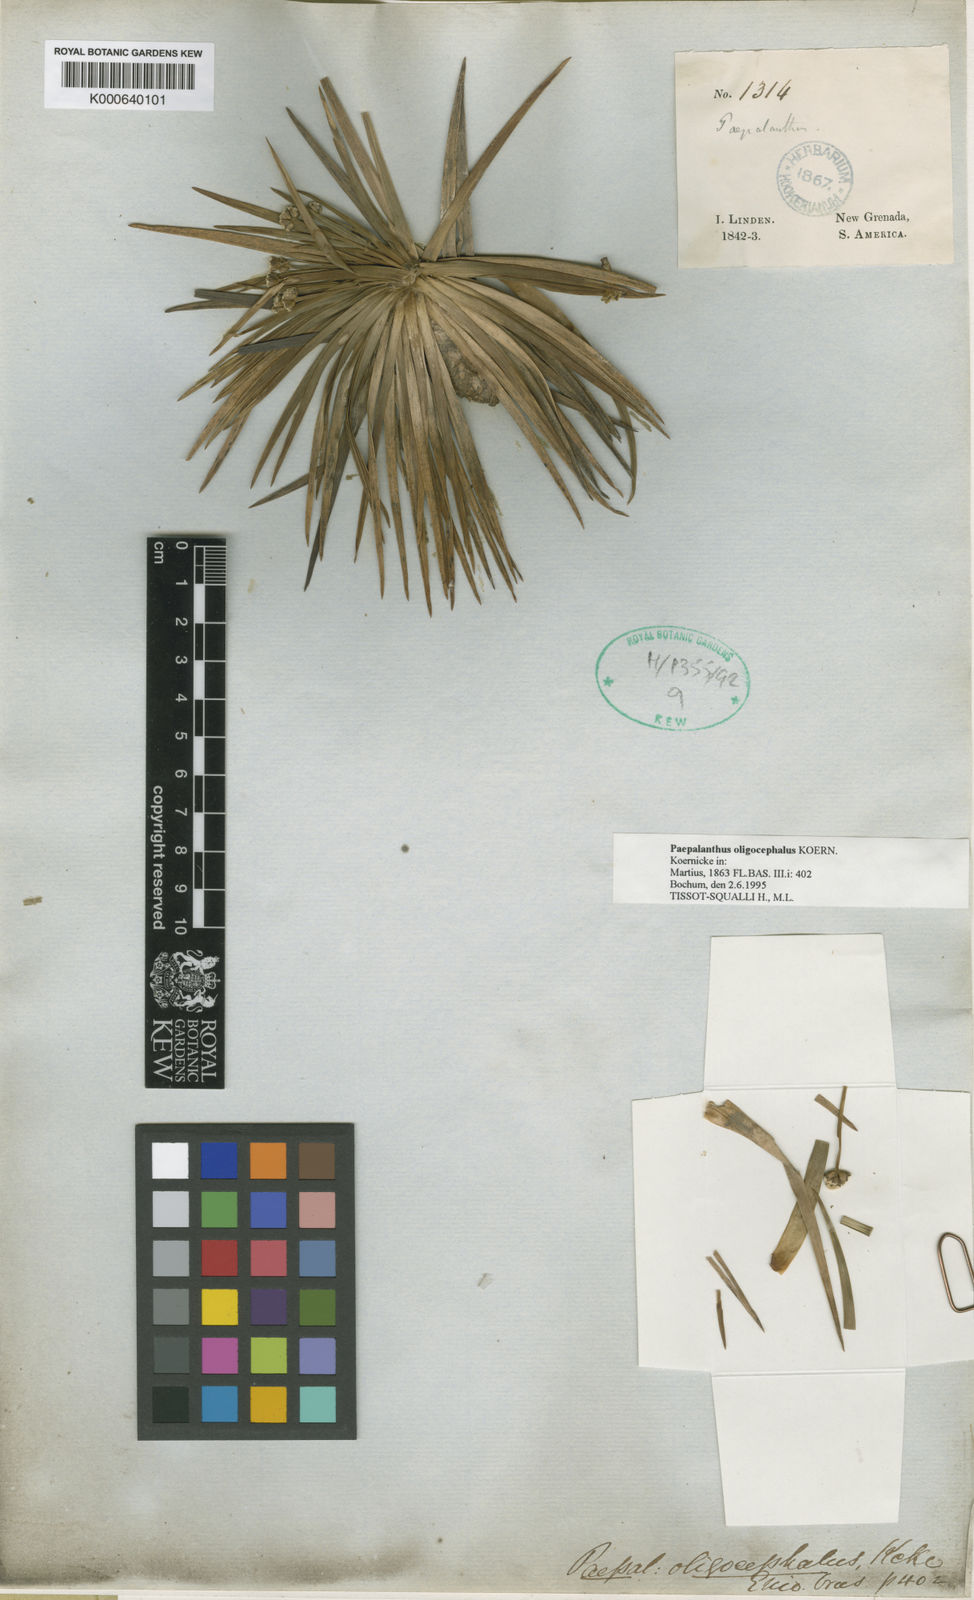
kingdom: Plantae
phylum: Tracheophyta
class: Liliopsida
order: Poales
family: Eriocaulaceae
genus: Paepalanthus
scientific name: Paepalanthus
